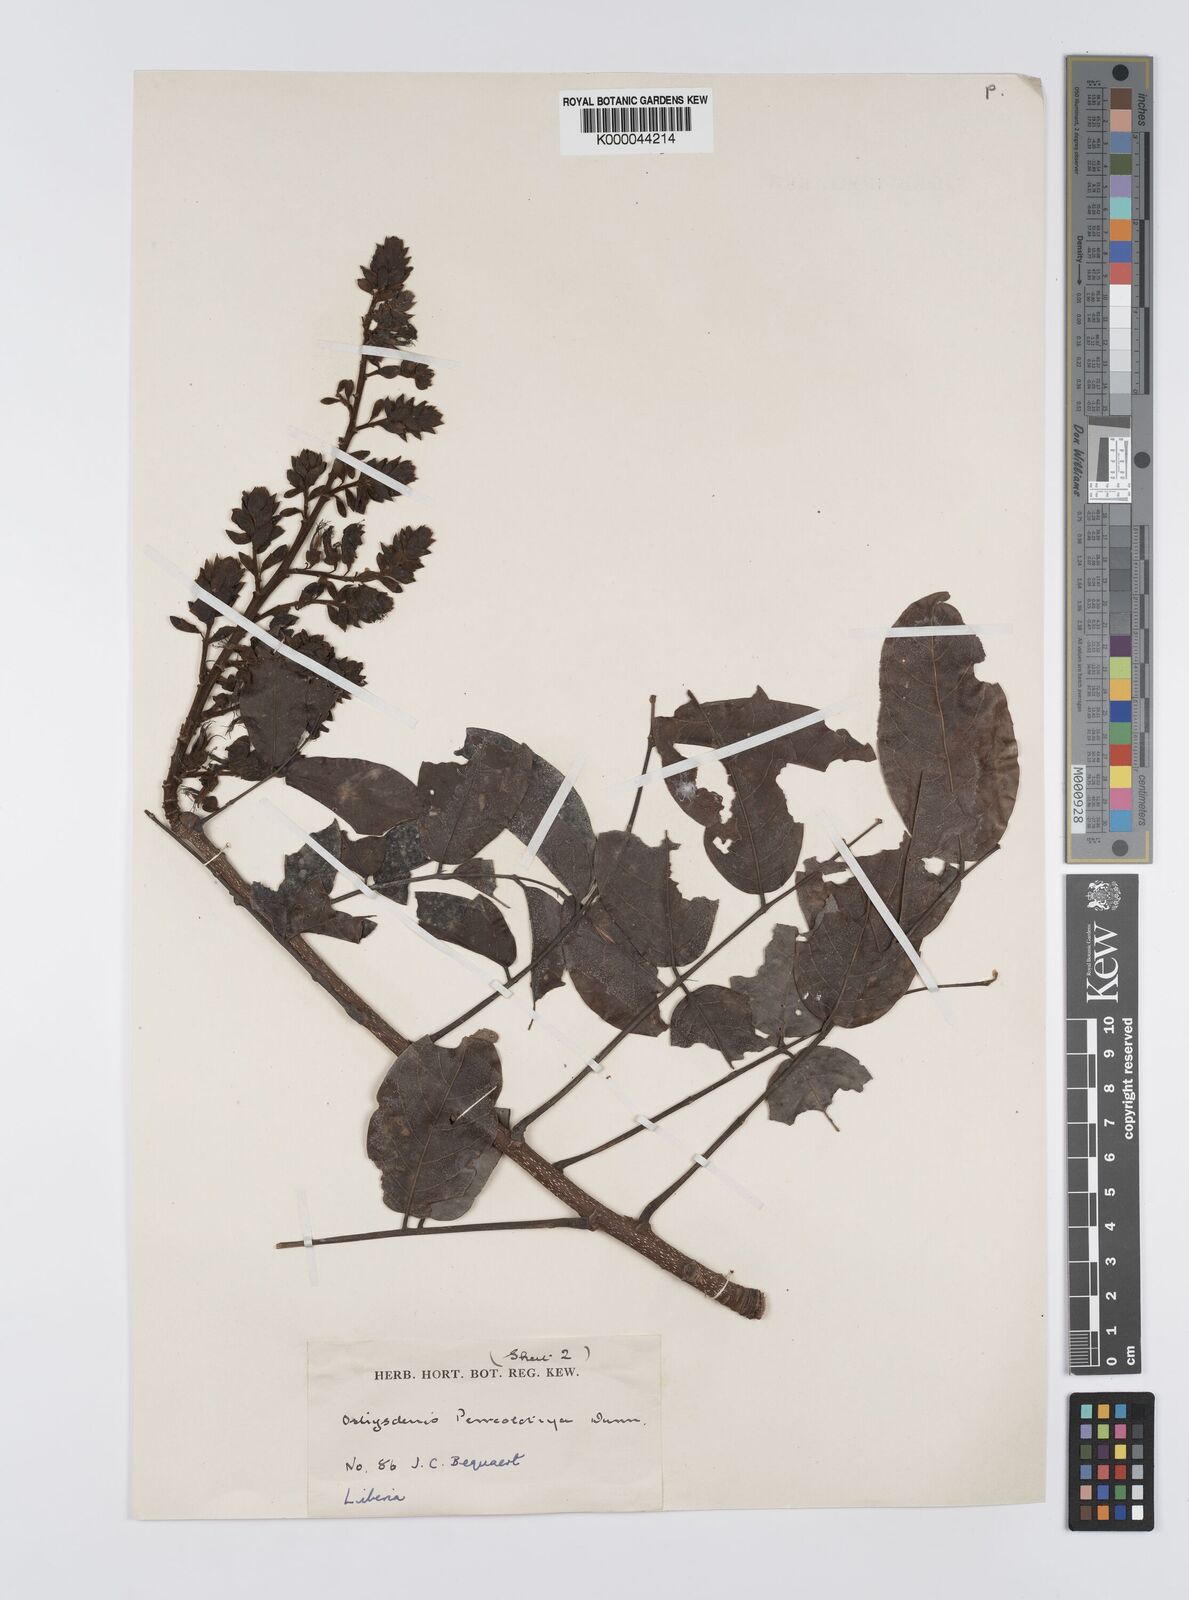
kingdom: Plantae
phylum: Tracheophyta
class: Magnoliopsida
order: Fabales
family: Fabaceae
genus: Aganope
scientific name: Aganope leucobotrya
